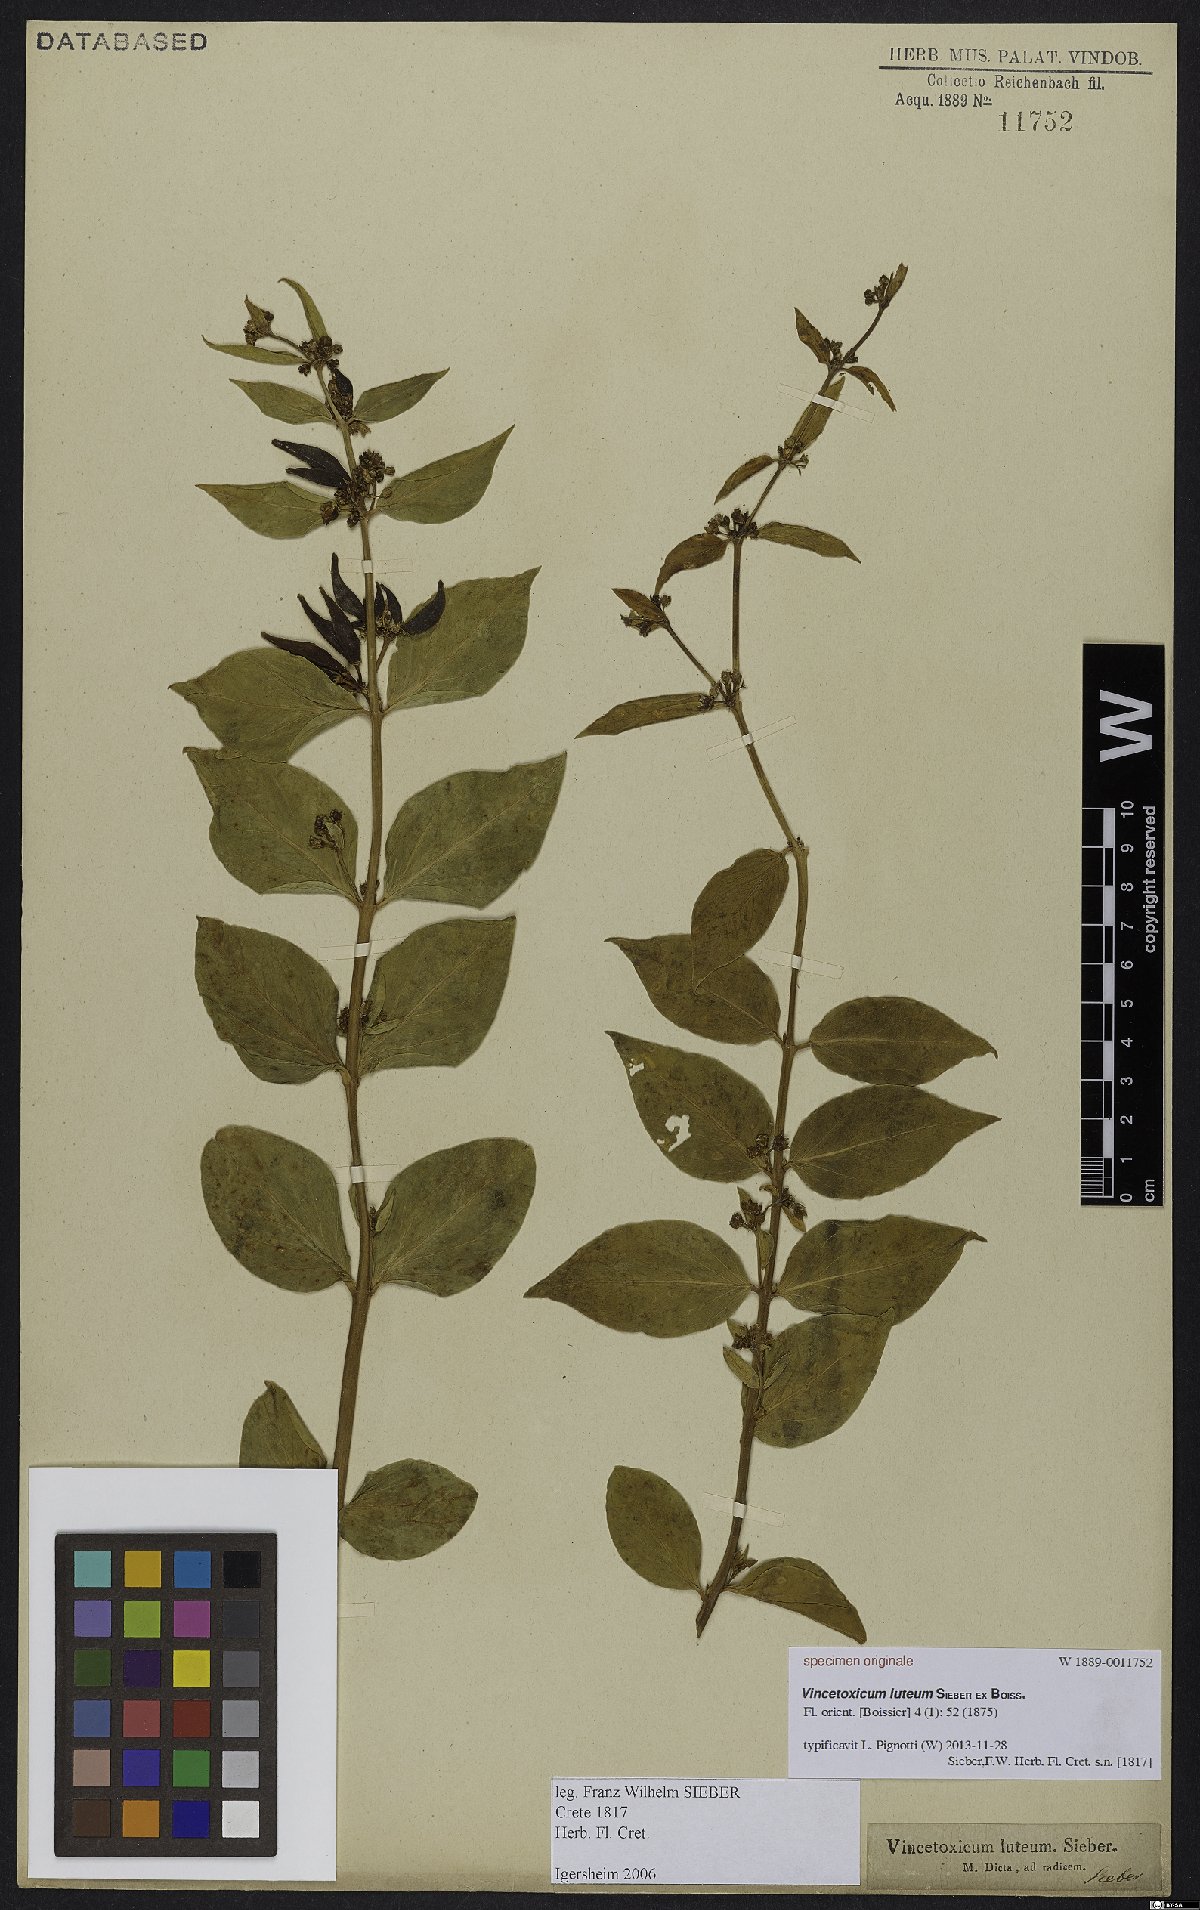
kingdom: Plantae
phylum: Tracheophyta
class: Magnoliopsida
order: Gentianales
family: Apocynaceae
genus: Vincetoxicum
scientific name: Vincetoxicum canescens
